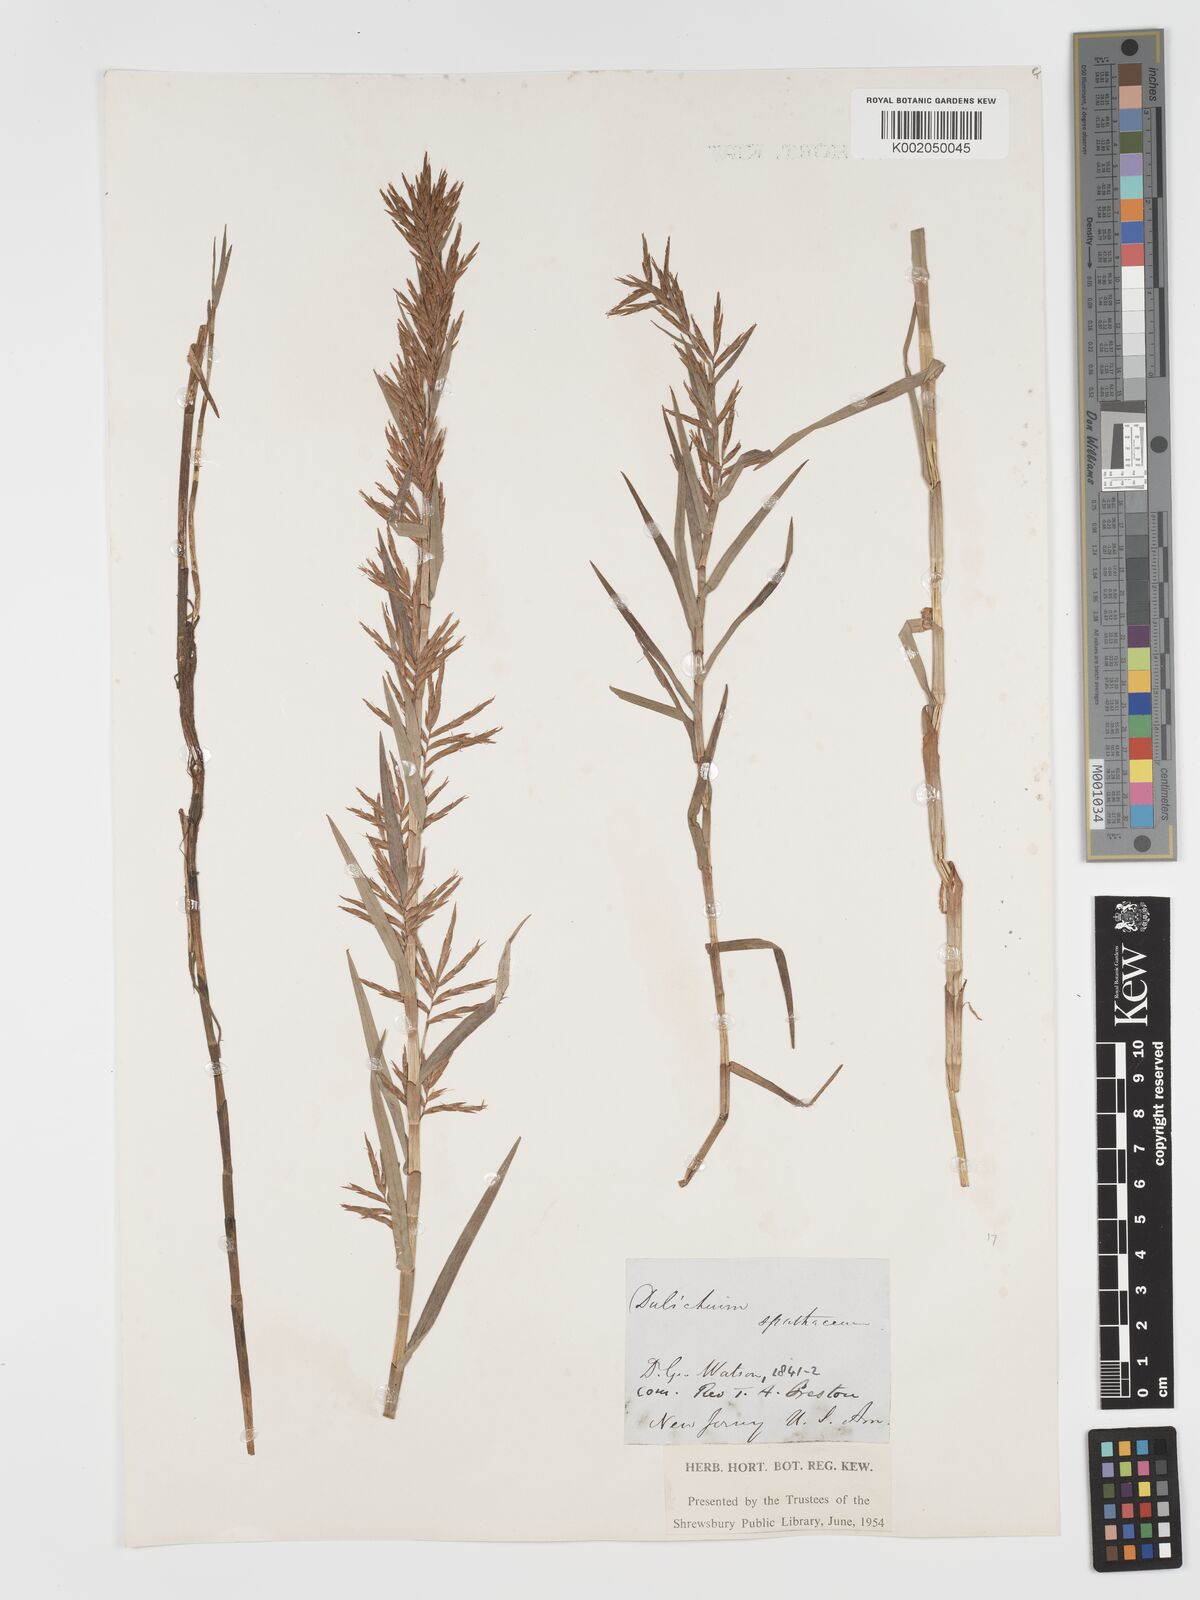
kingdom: Plantae
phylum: Tracheophyta
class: Liliopsida
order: Poales
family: Cyperaceae
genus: Dulichium
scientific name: Dulichium arundinaceum
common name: Three-way sedge
